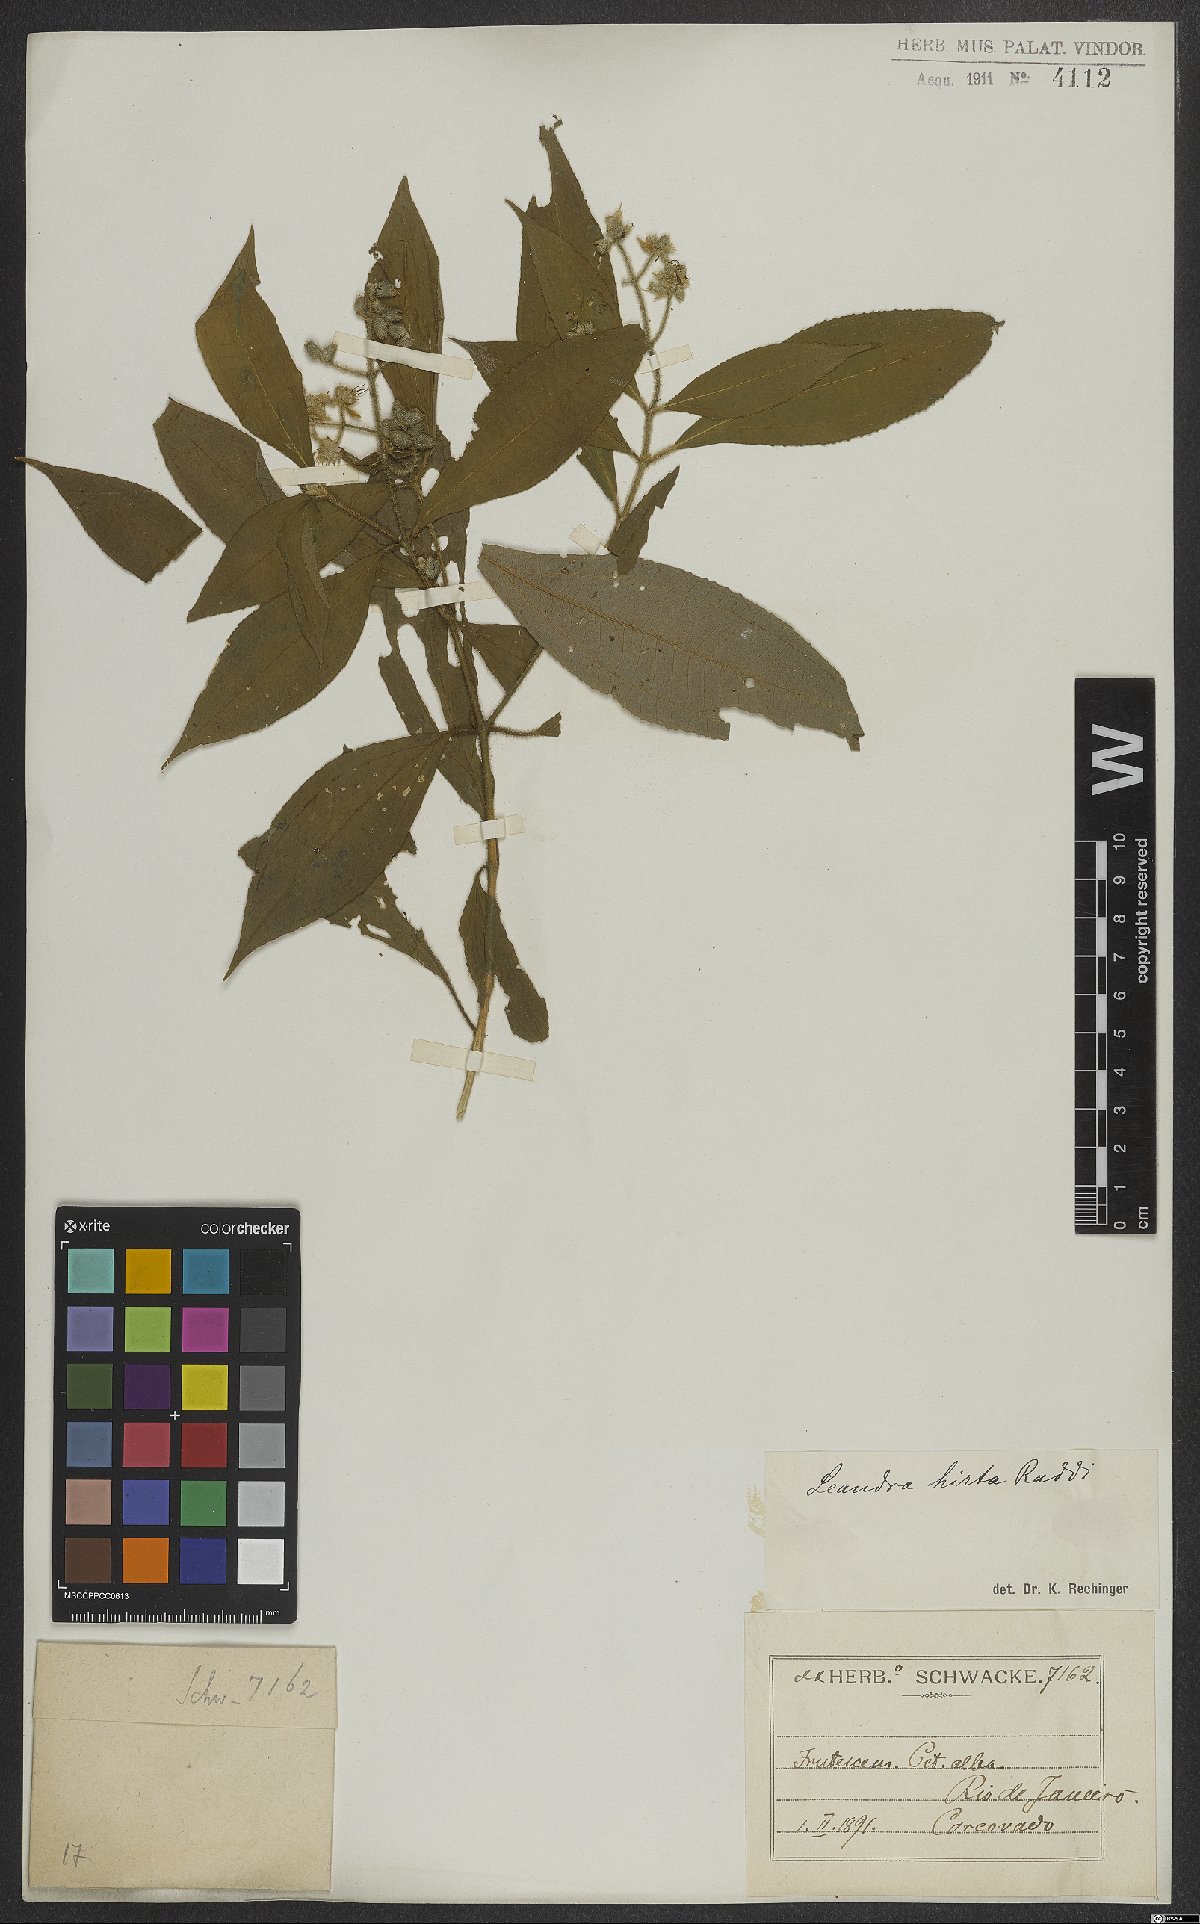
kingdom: Plantae
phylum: Tracheophyta
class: Magnoliopsida
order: Myrtales
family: Melastomataceae
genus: Miconia
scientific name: Miconia dubia
